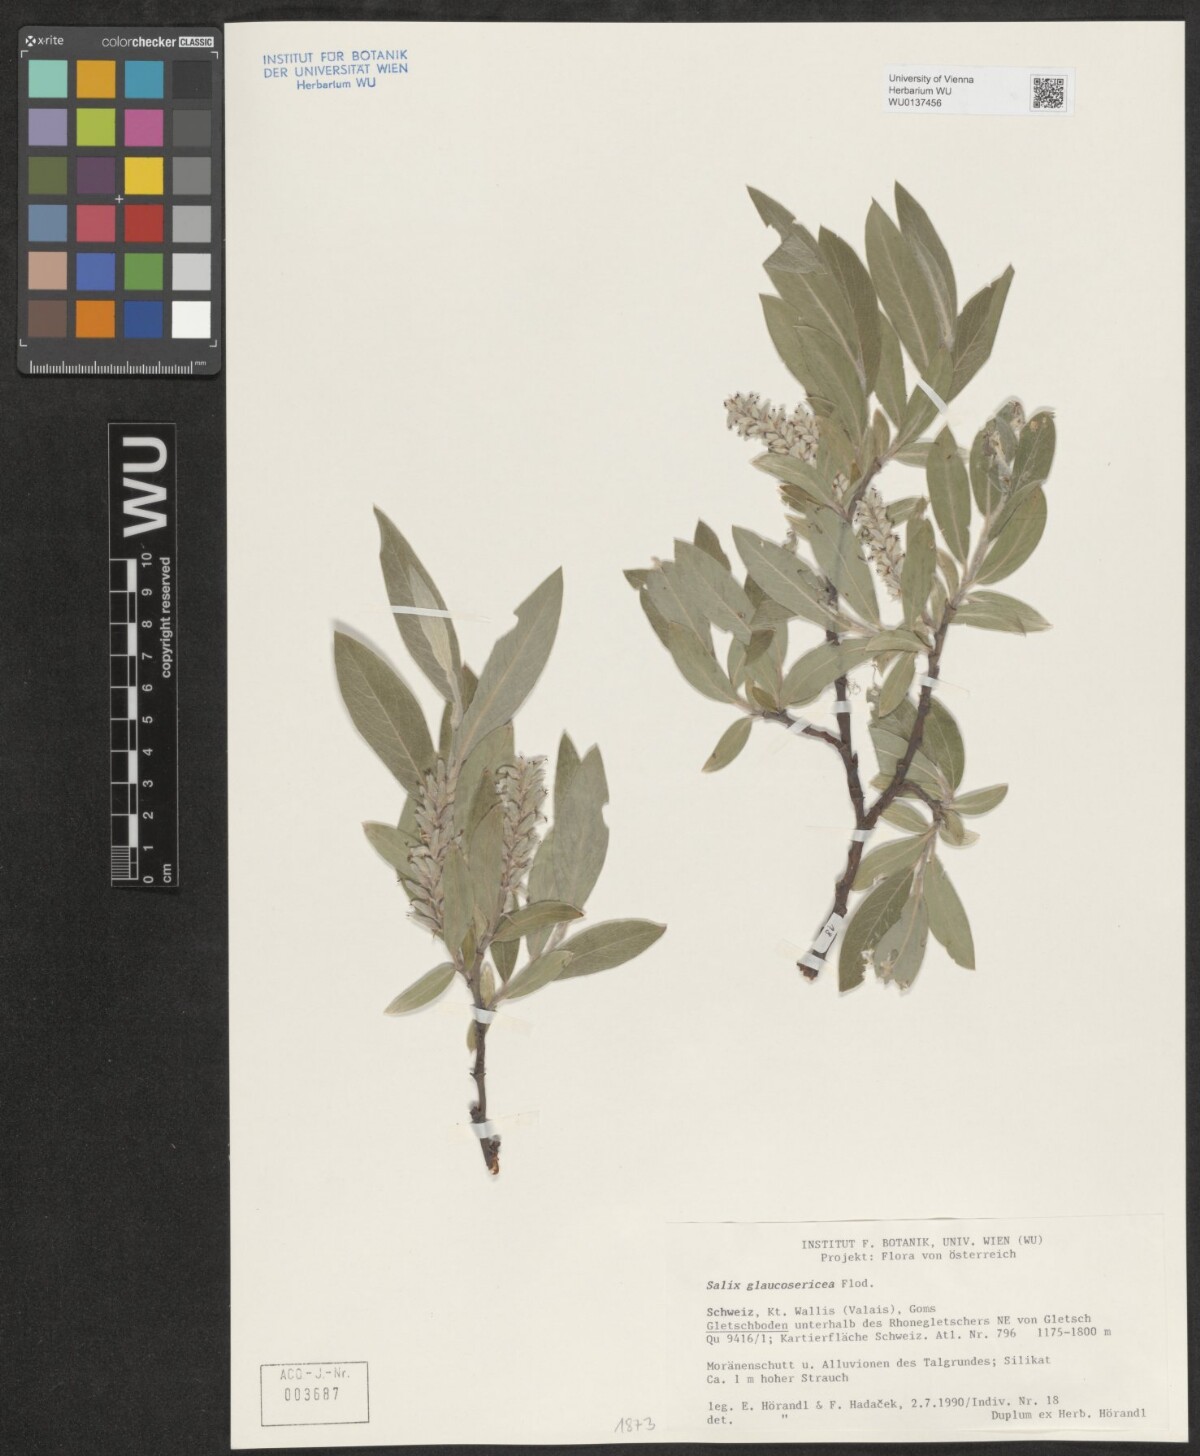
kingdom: Plantae
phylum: Tracheophyta
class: Magnoliopsida
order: Malpighiales
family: Salicaceae
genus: Salix
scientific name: Salix glaucosericea
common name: Alpine gray willow
